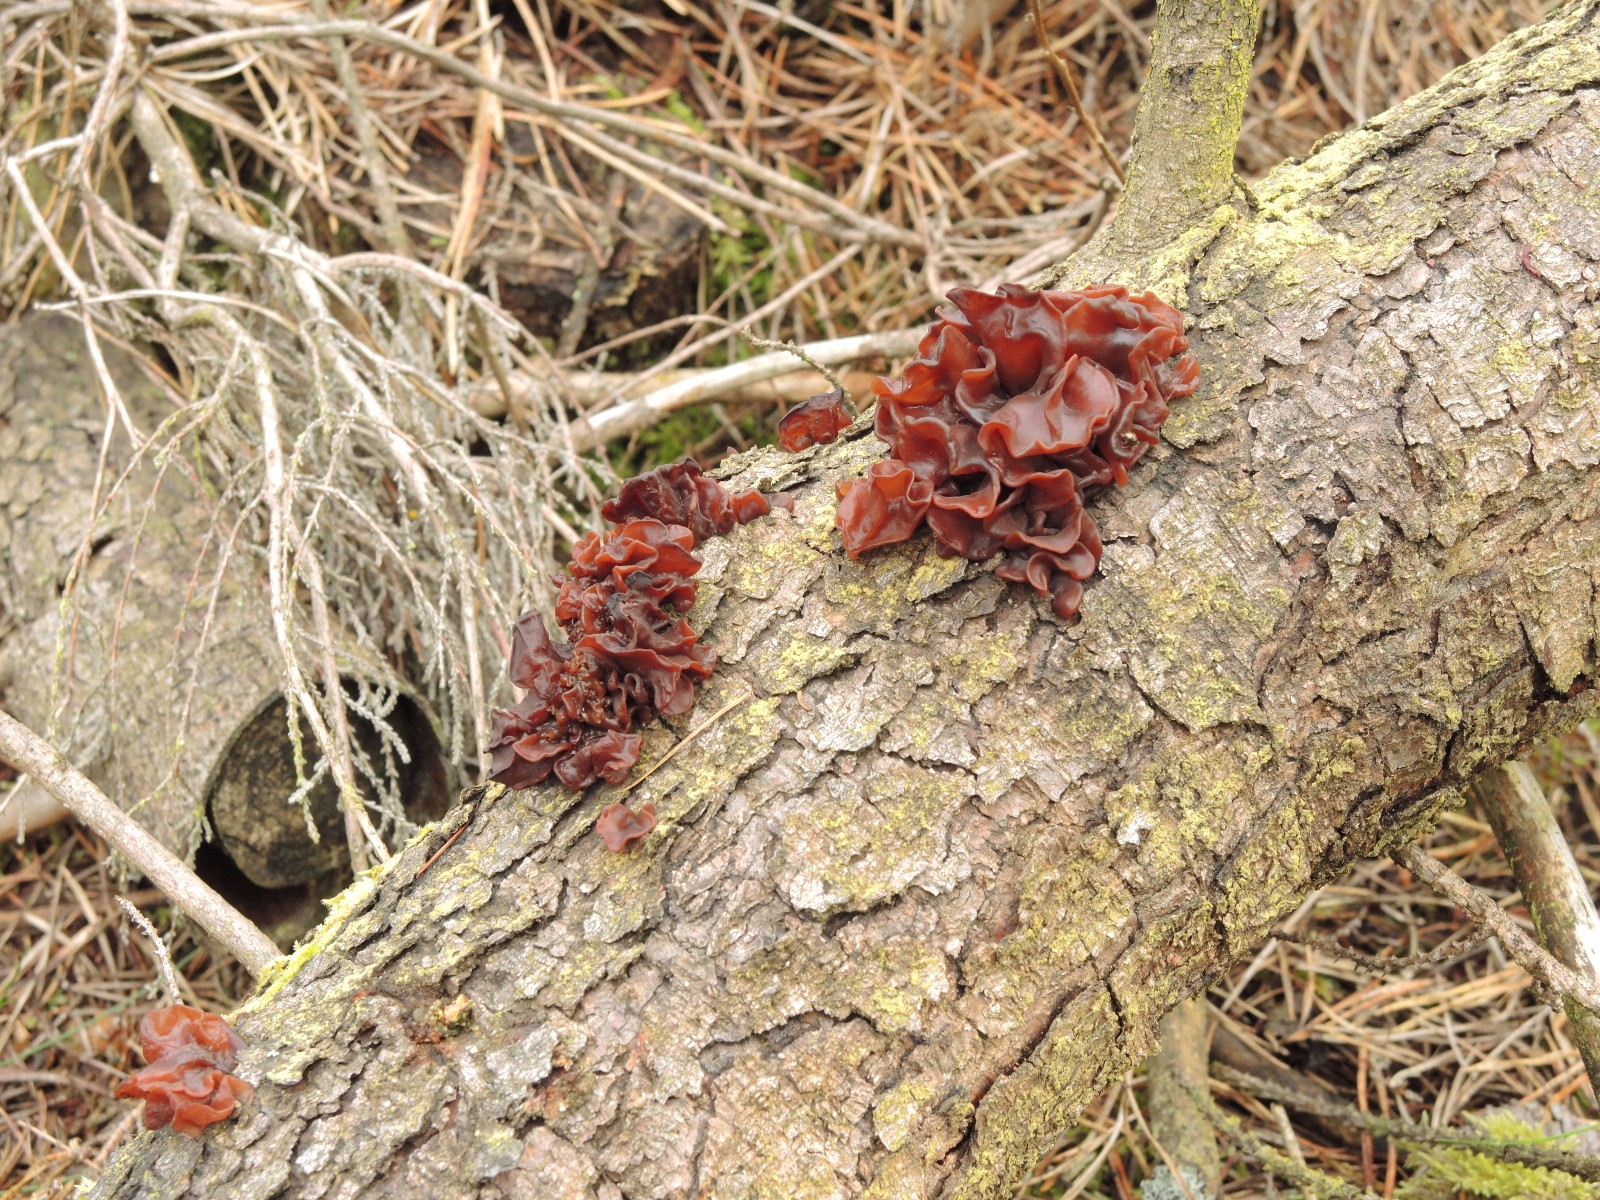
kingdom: Fungi
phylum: Basidiomycota
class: Tremellomycetes
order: Tremellales
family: Tremellaceae
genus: Phaeotremella
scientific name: Phaeotremella foliacea
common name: brun bævresvamp
